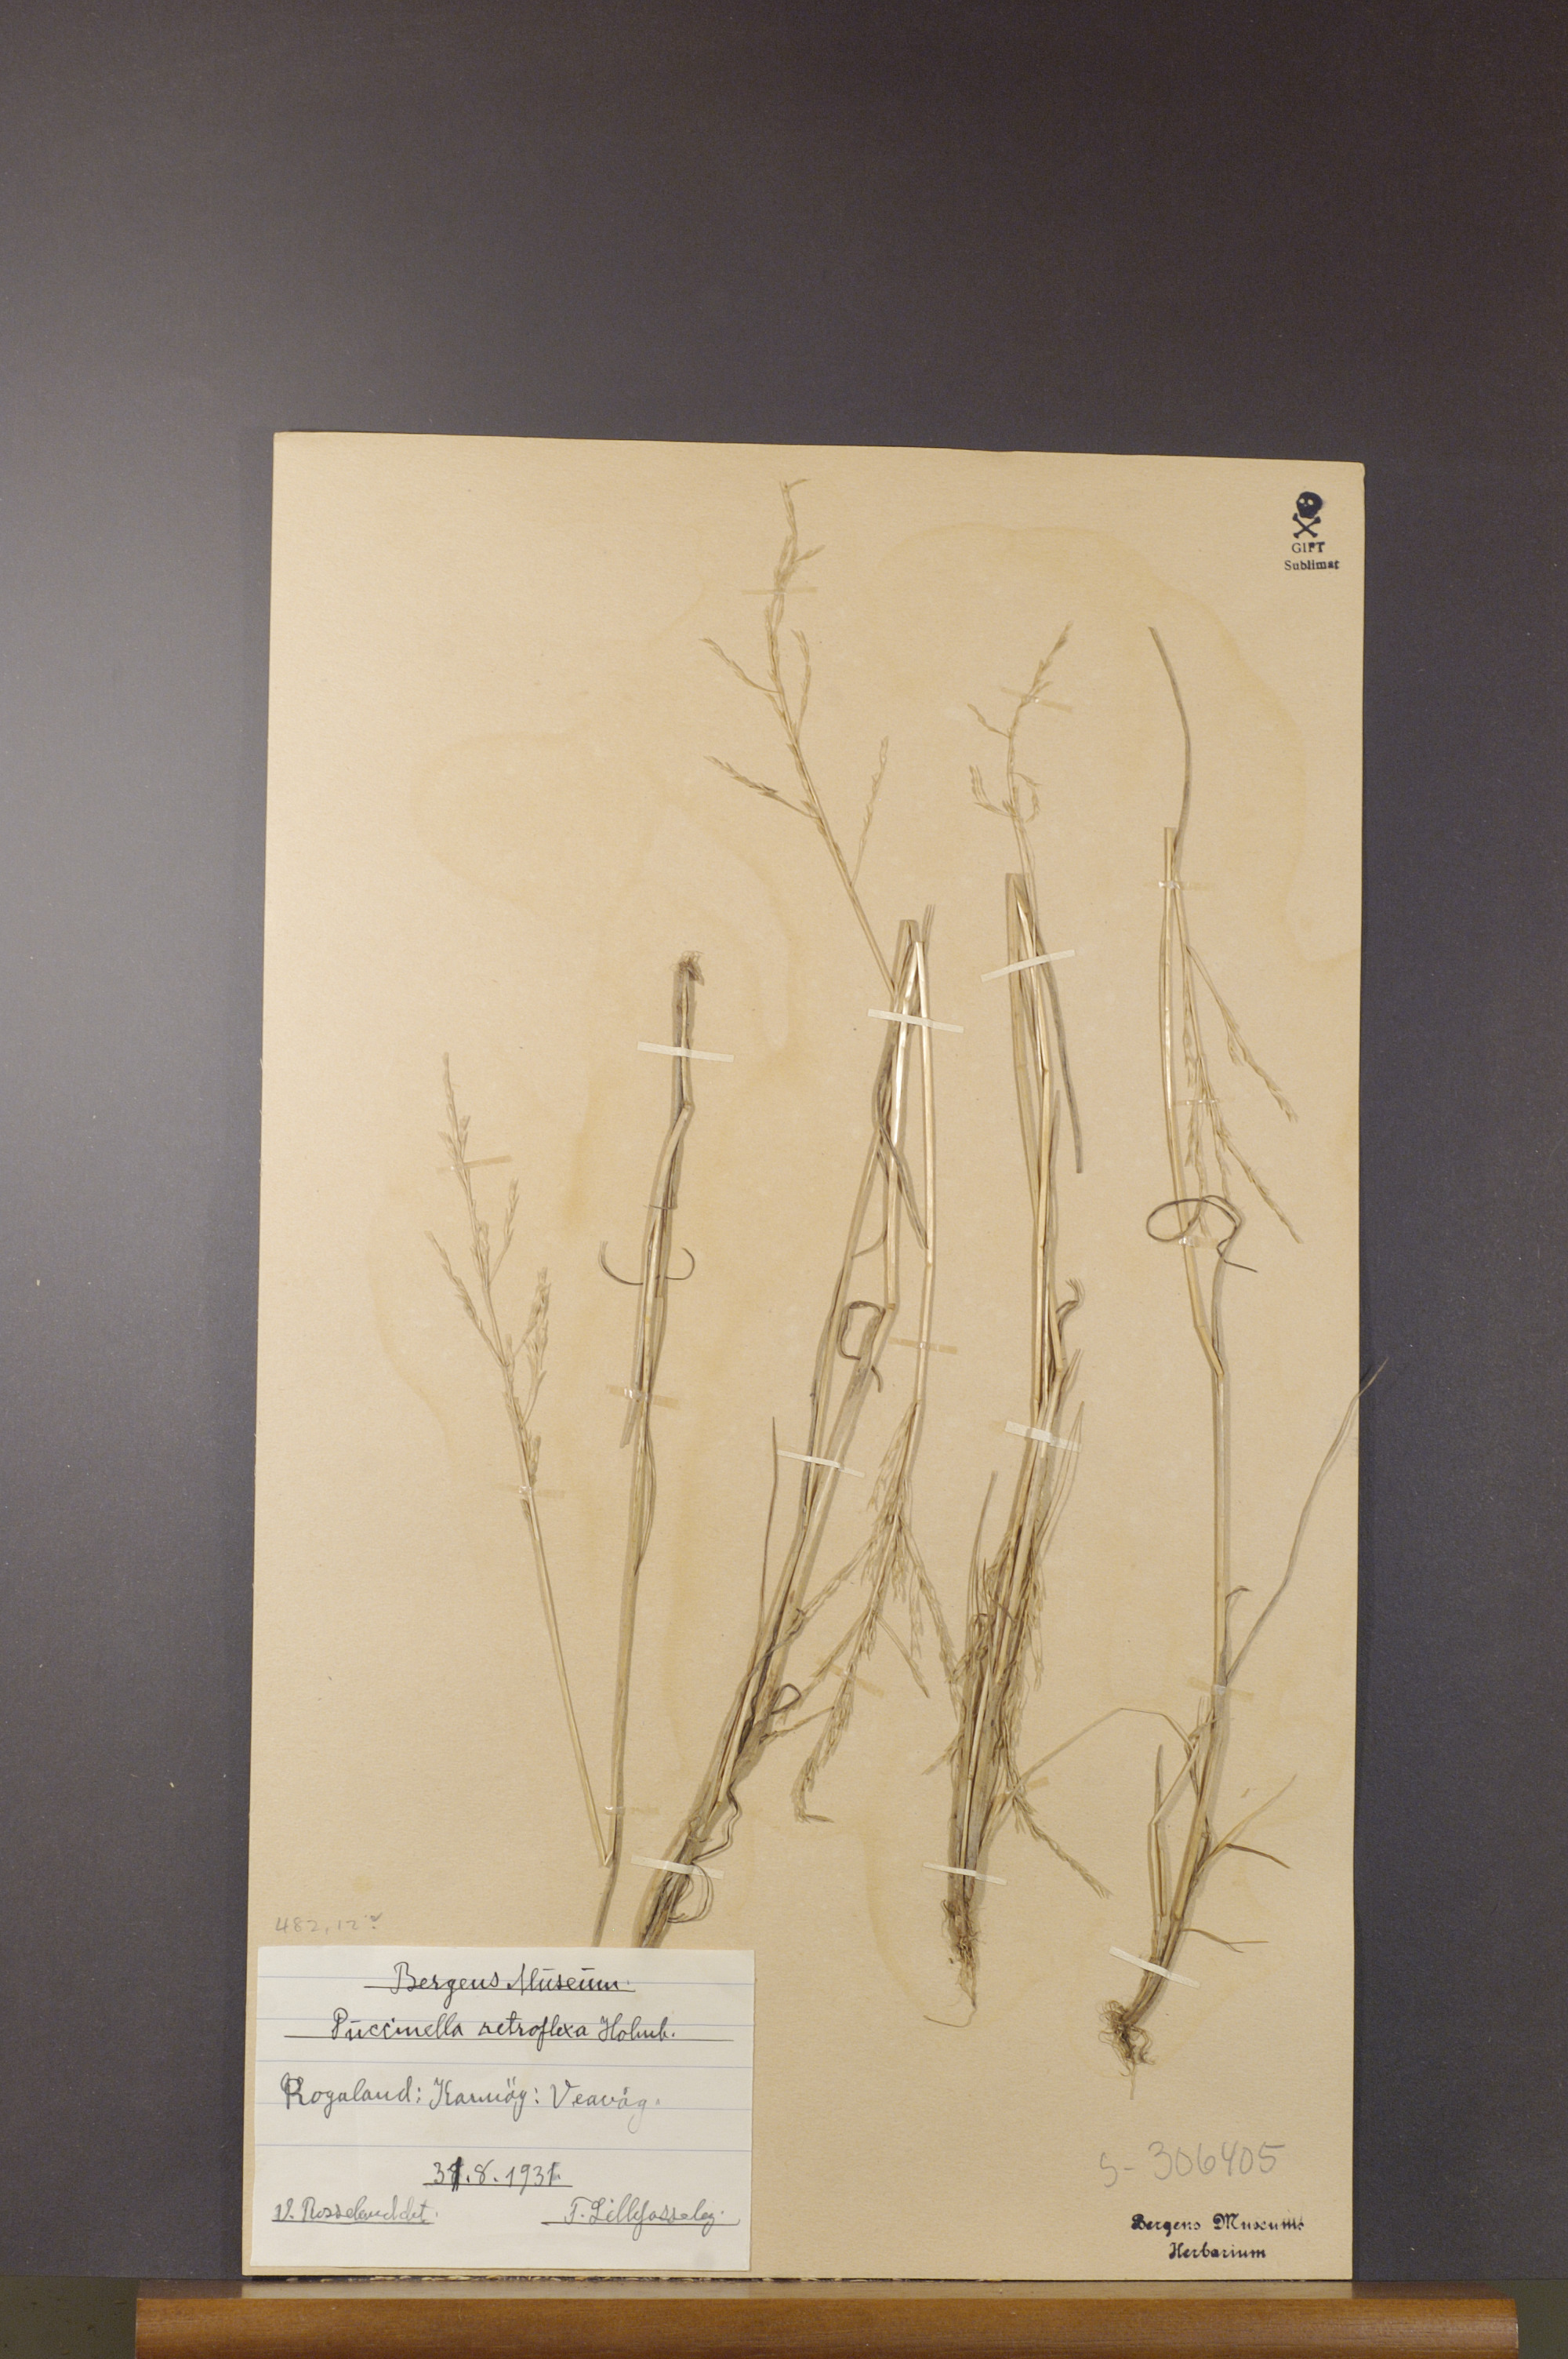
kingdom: Plantae
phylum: Tracheophyta
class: Liliopsida
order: Poales
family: Poaceae
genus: Puccinellia
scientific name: Puccinellia distans
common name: Weeping alkaligrass
